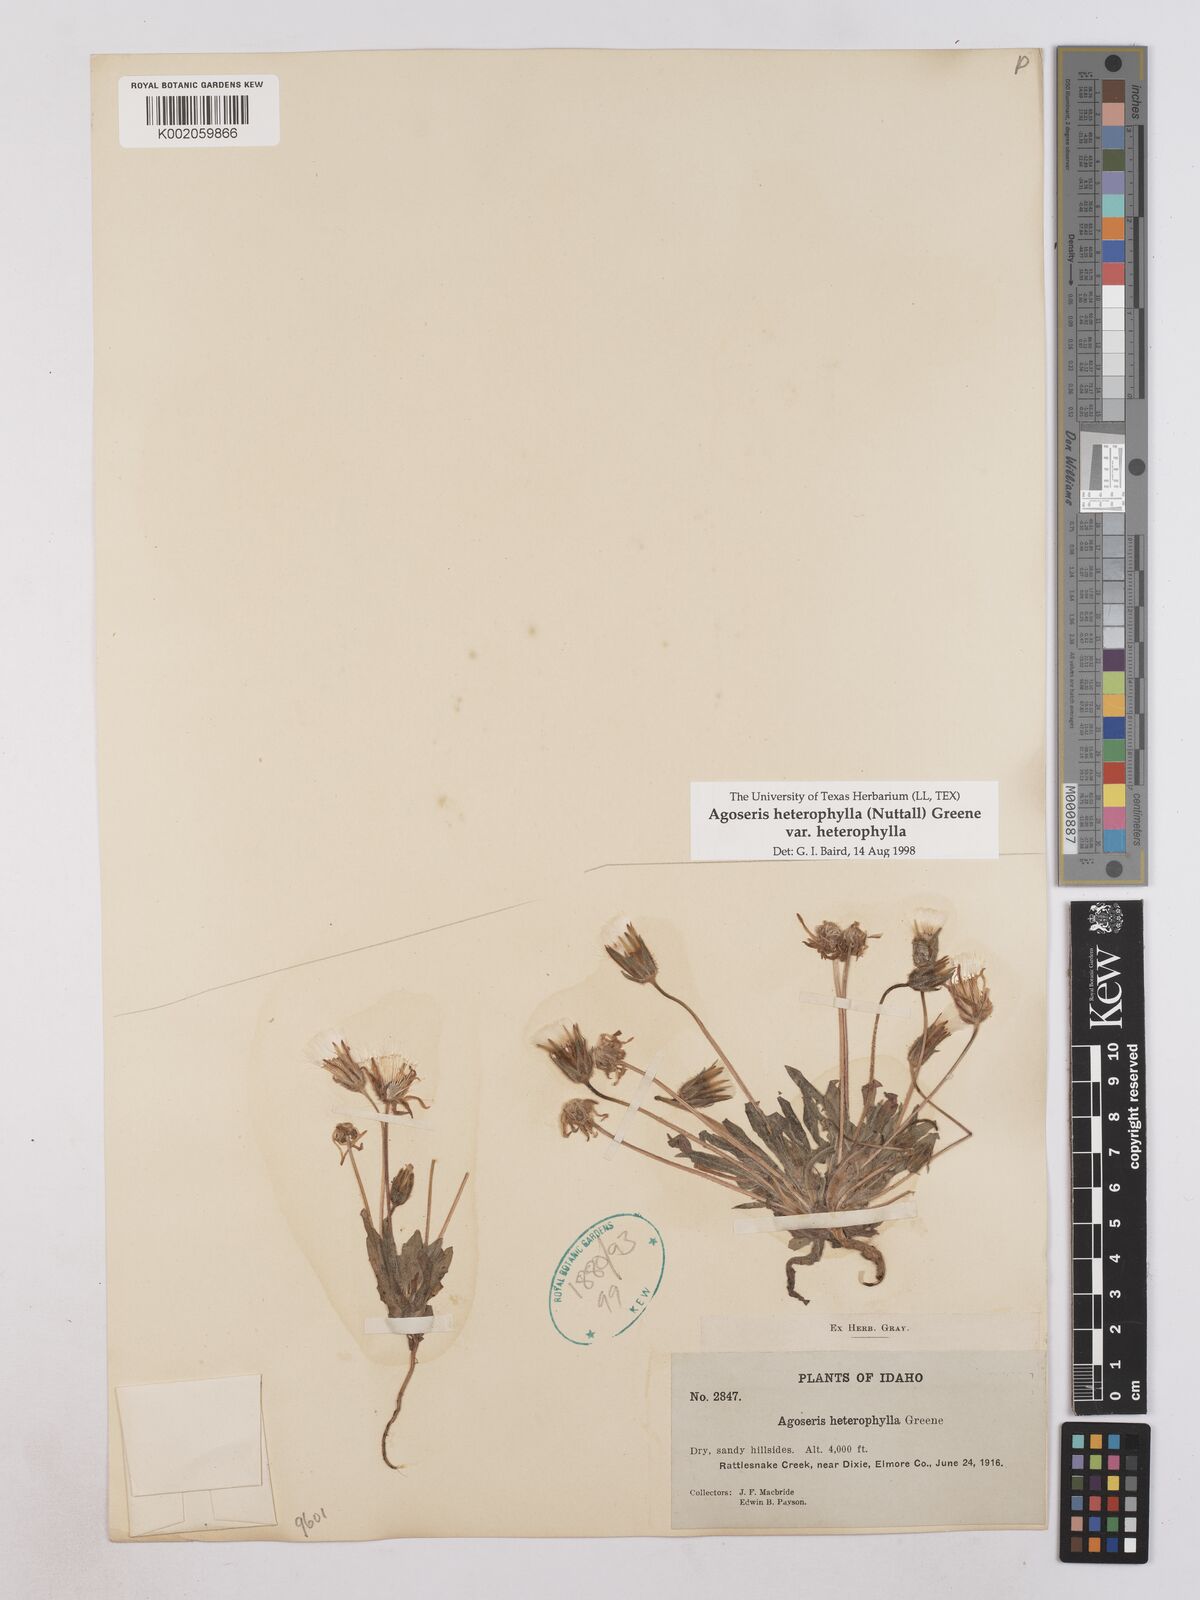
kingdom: Plantae
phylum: Tracheophyta
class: Magnoliopsida
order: Asterales
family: Asteraceae
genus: Agoseris
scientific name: Agoseris heterophylla
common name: Annual agoseris
